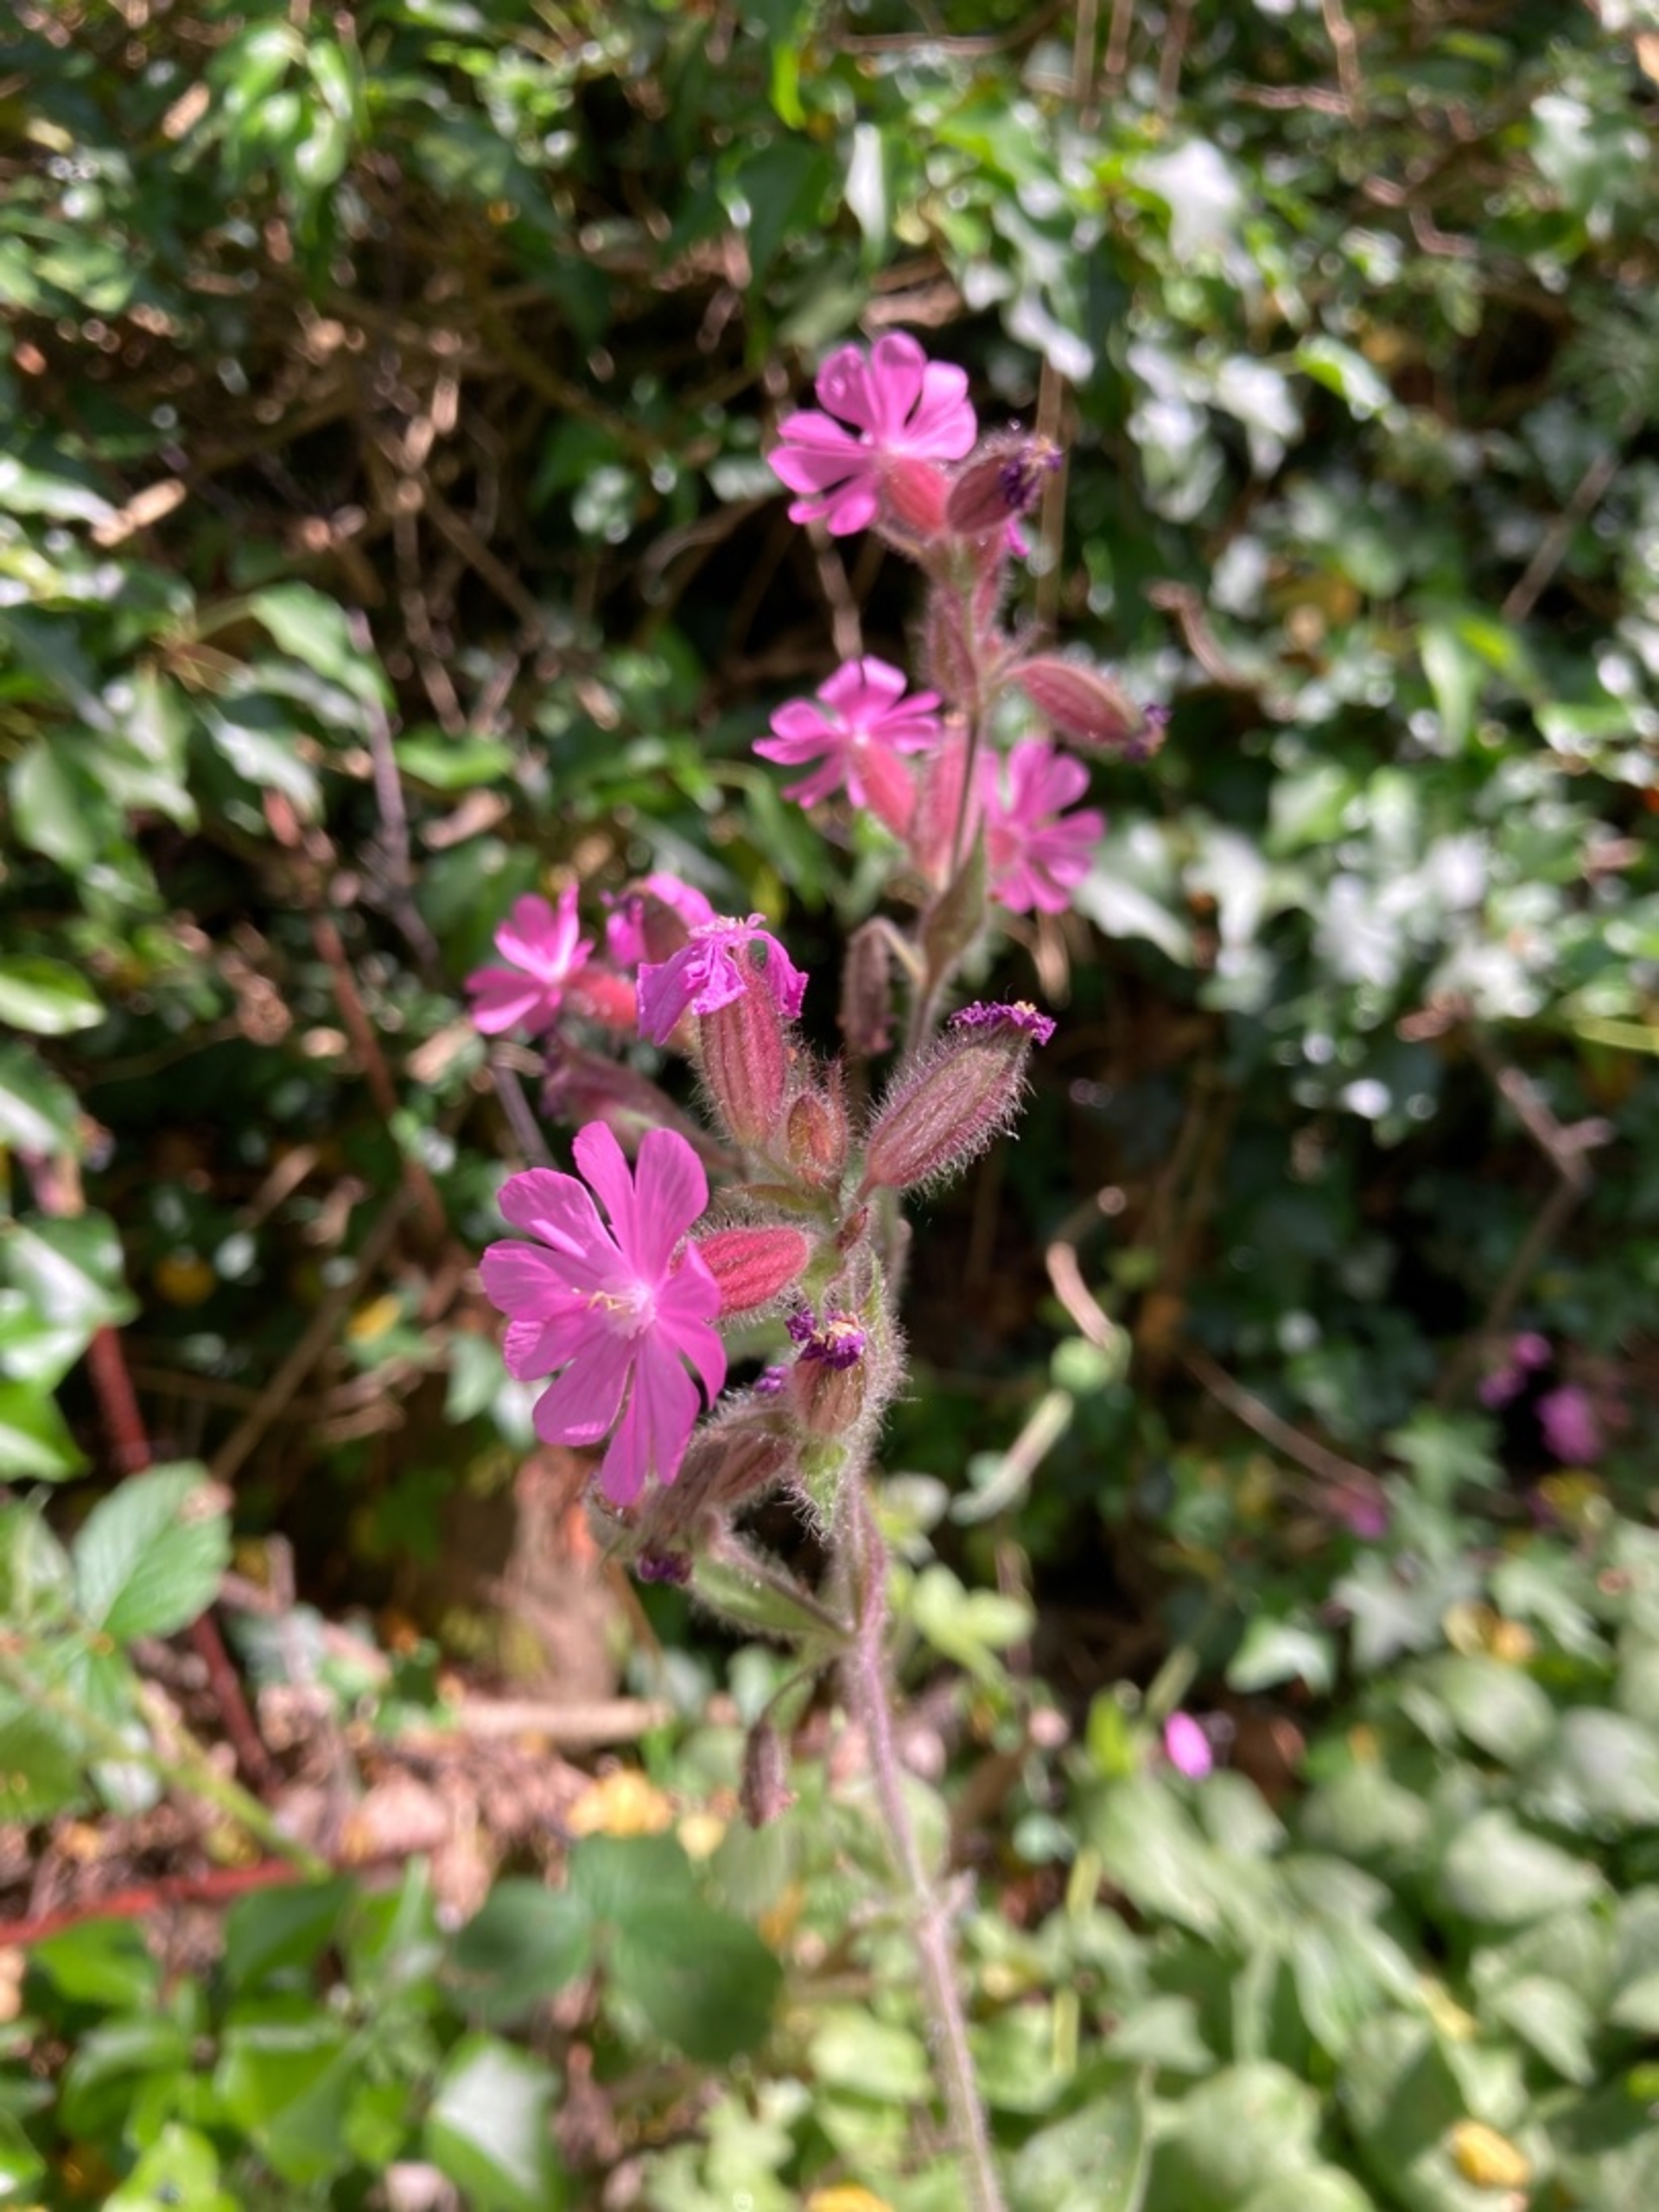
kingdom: Plantae
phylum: Tracheophyta
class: Magnoliopsida
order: Caryophyllales
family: Caryophyllaceae
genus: Silene
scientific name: Silene dioica
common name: Dagpragtstjerne
